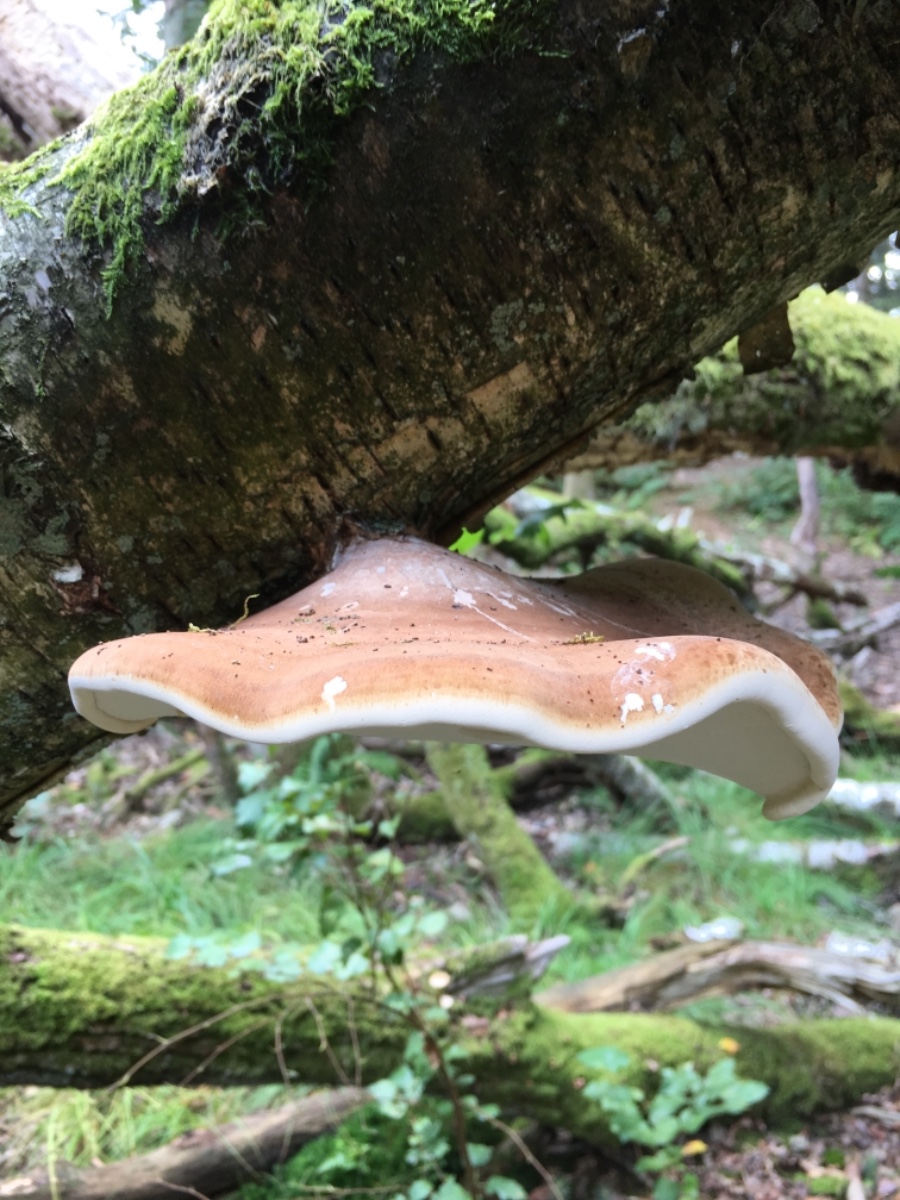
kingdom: Fungi
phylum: Basidiomycota
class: Agaricomycetes
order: Polyporales
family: Fomitopsidaceae
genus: Fomitopsis
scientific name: Fomitopsis betulina
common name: birkeporesvamp
